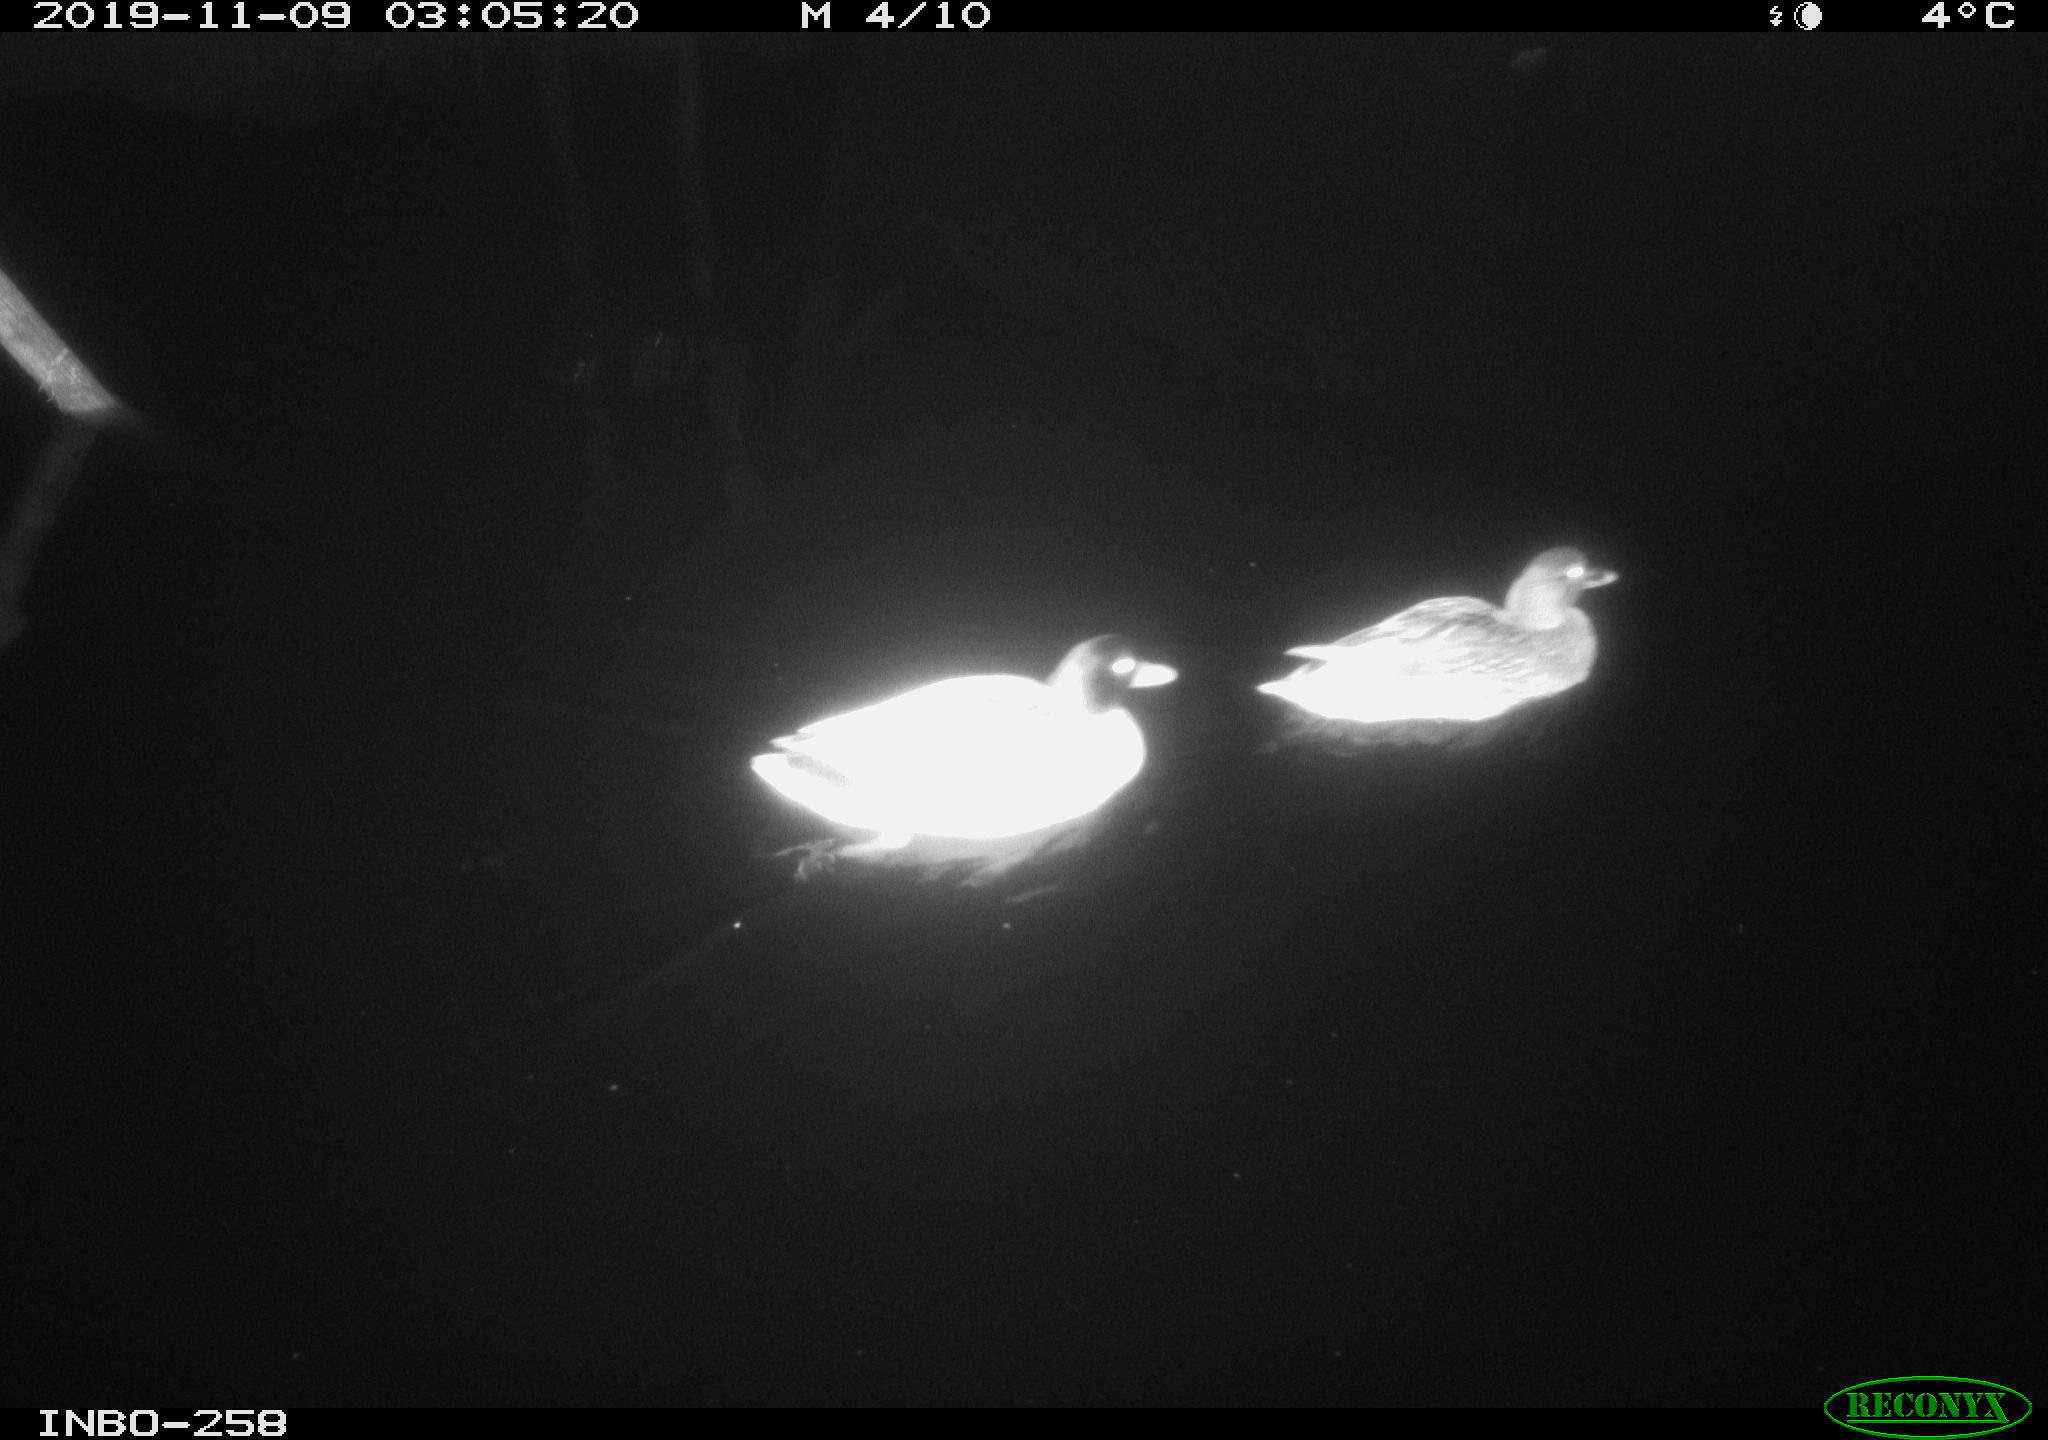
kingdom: Animalia
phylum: Chordata
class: Aves
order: Anseriformes
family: Anatidae
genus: Anas
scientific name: Anas platyrhynchos
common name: Mallard
